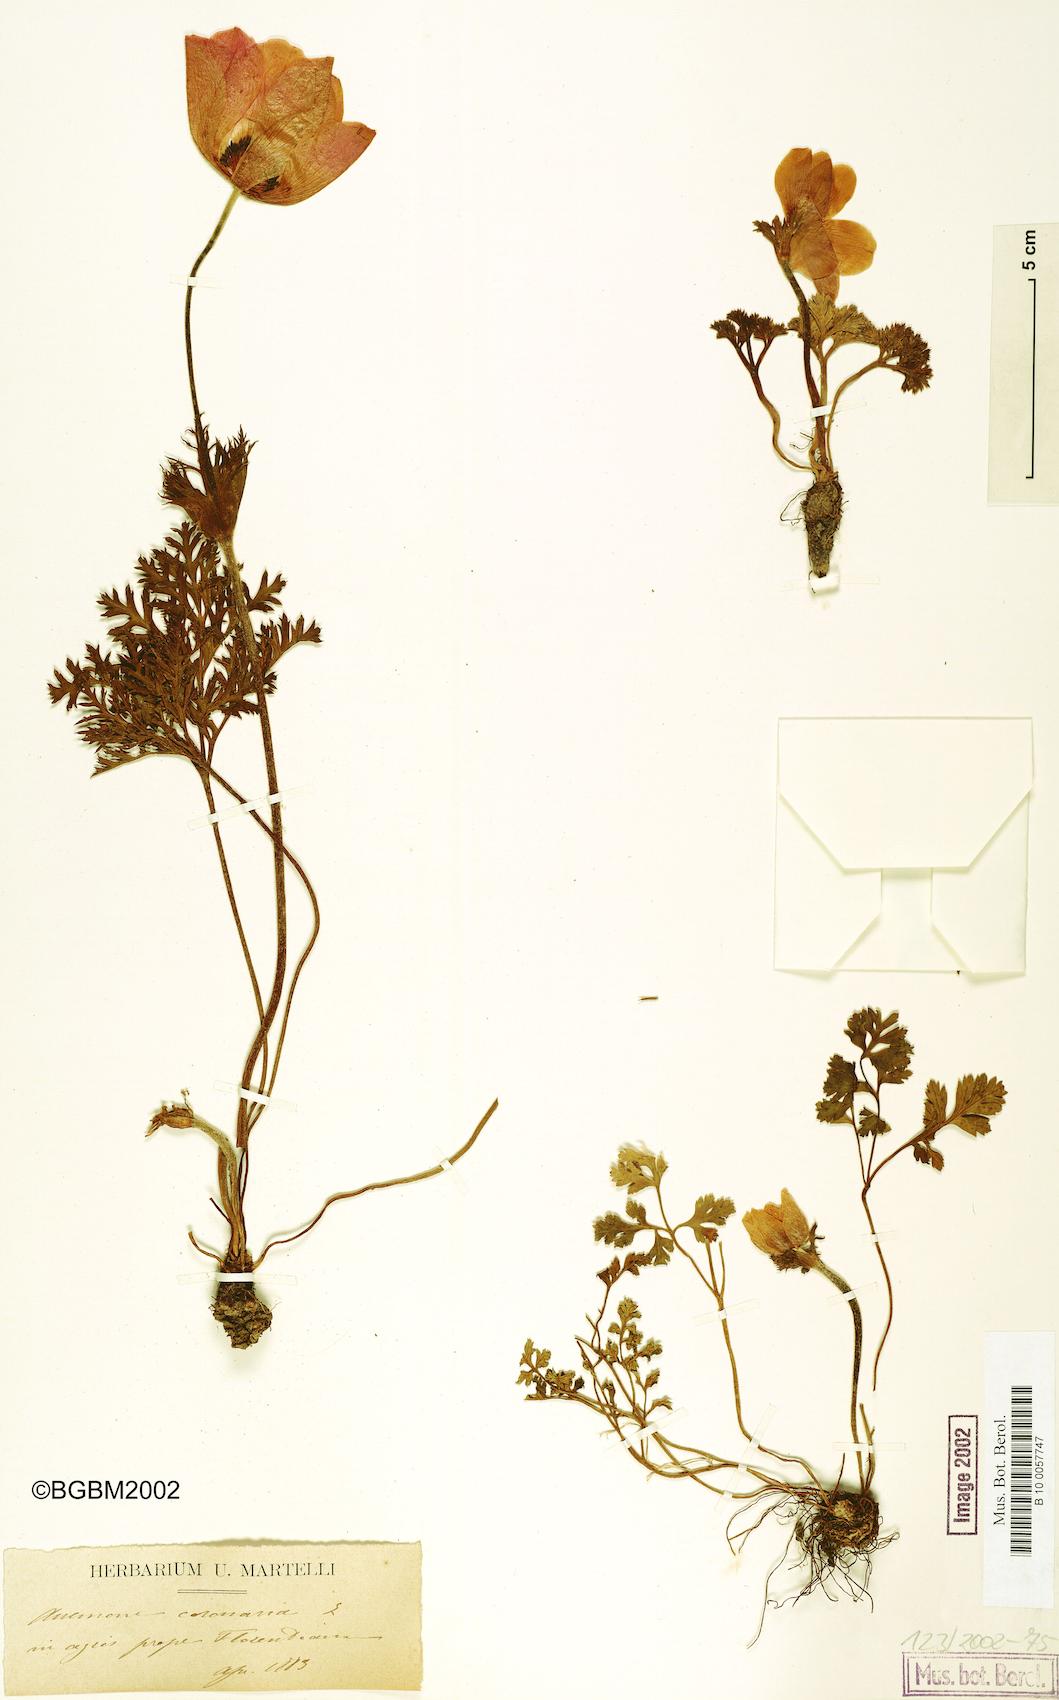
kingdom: Plantae
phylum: Tracheophyta
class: Magnoliopsida
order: Ranunculales
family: Ranunculaceae
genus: Anemone
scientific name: Anemone coronaria
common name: Poppy anemone
